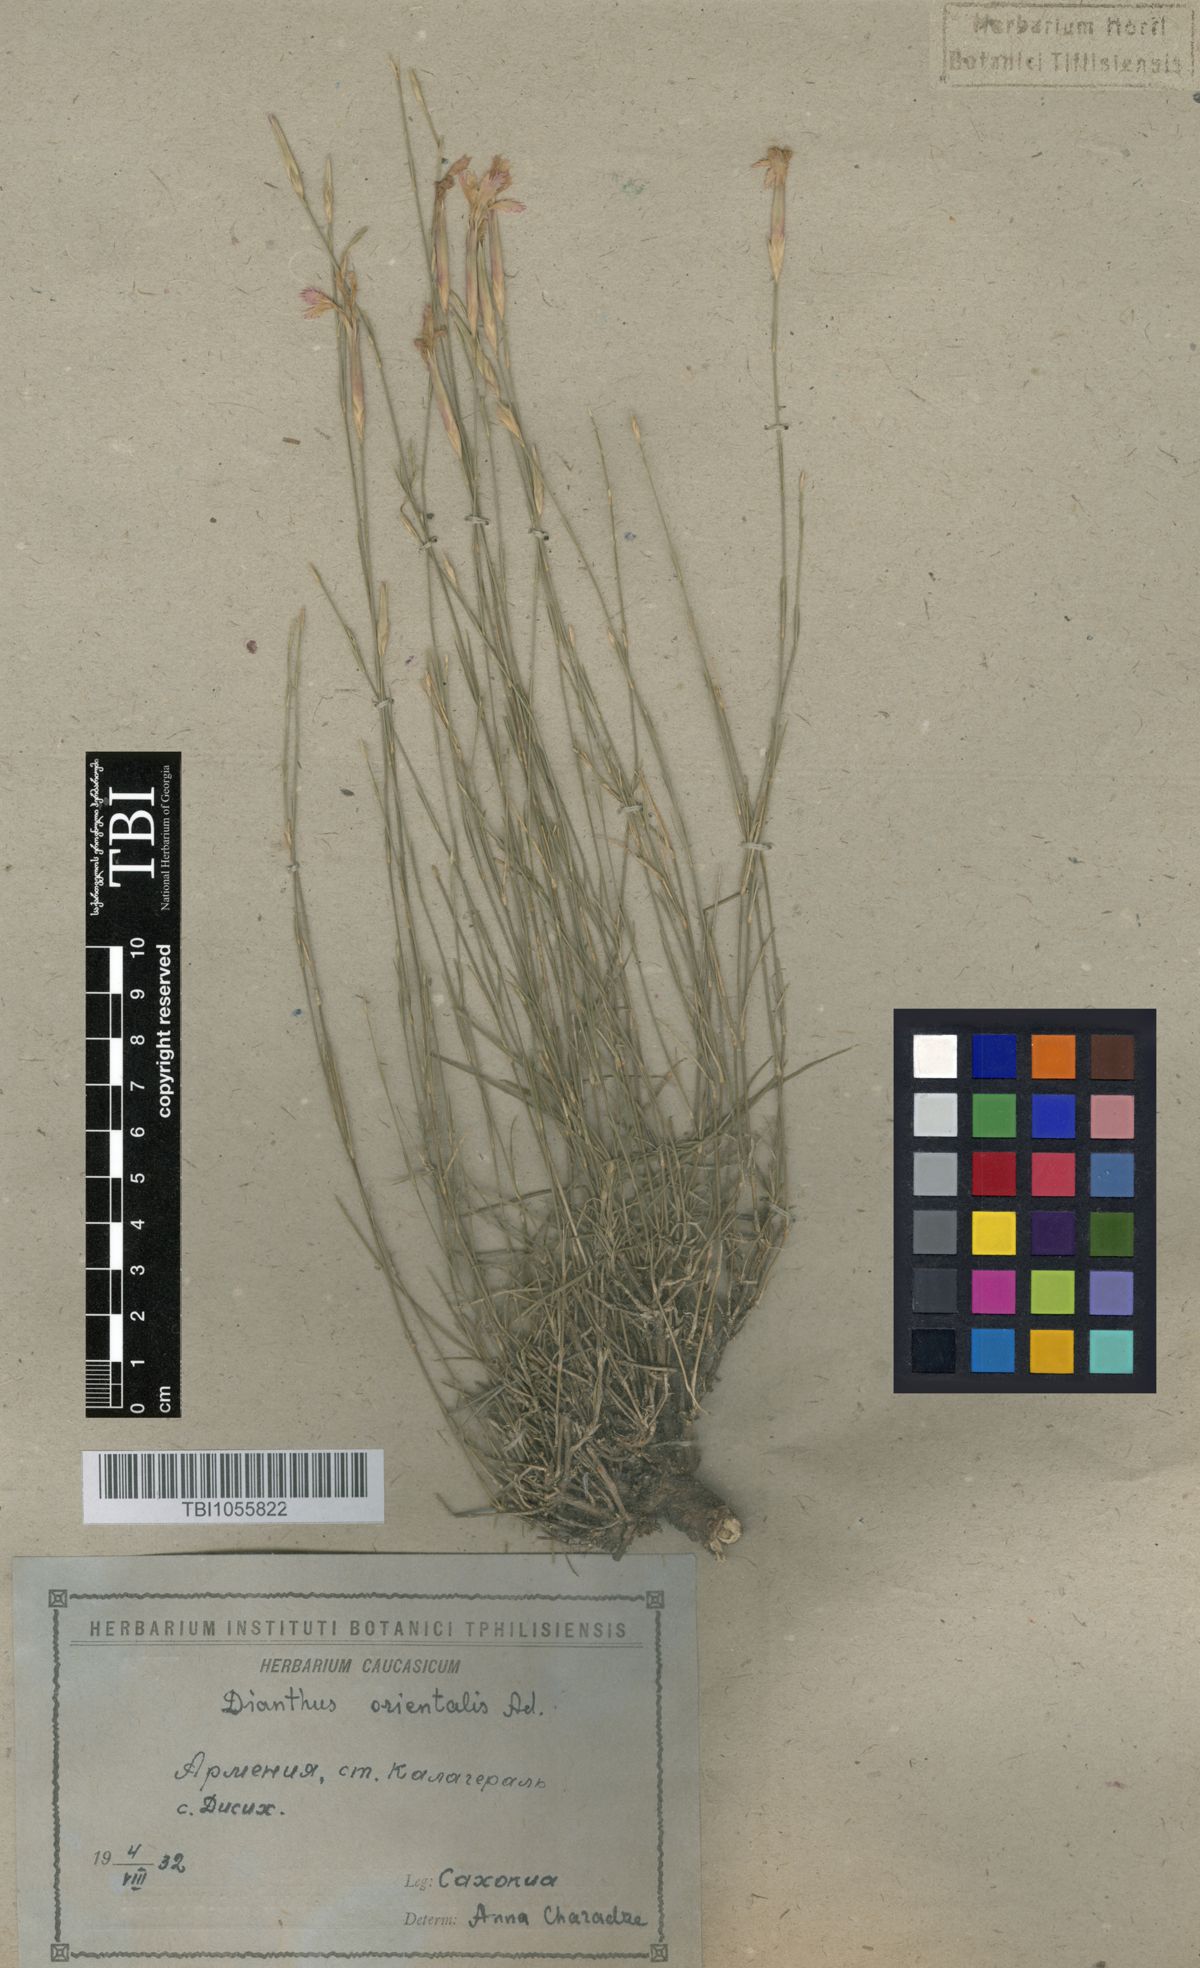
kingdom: Plantae
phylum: Tracheophyta
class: Magnoliopsida
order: Caryophyllales
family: Caryophyllaceae
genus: Dianthus
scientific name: Dianthus orientalis
